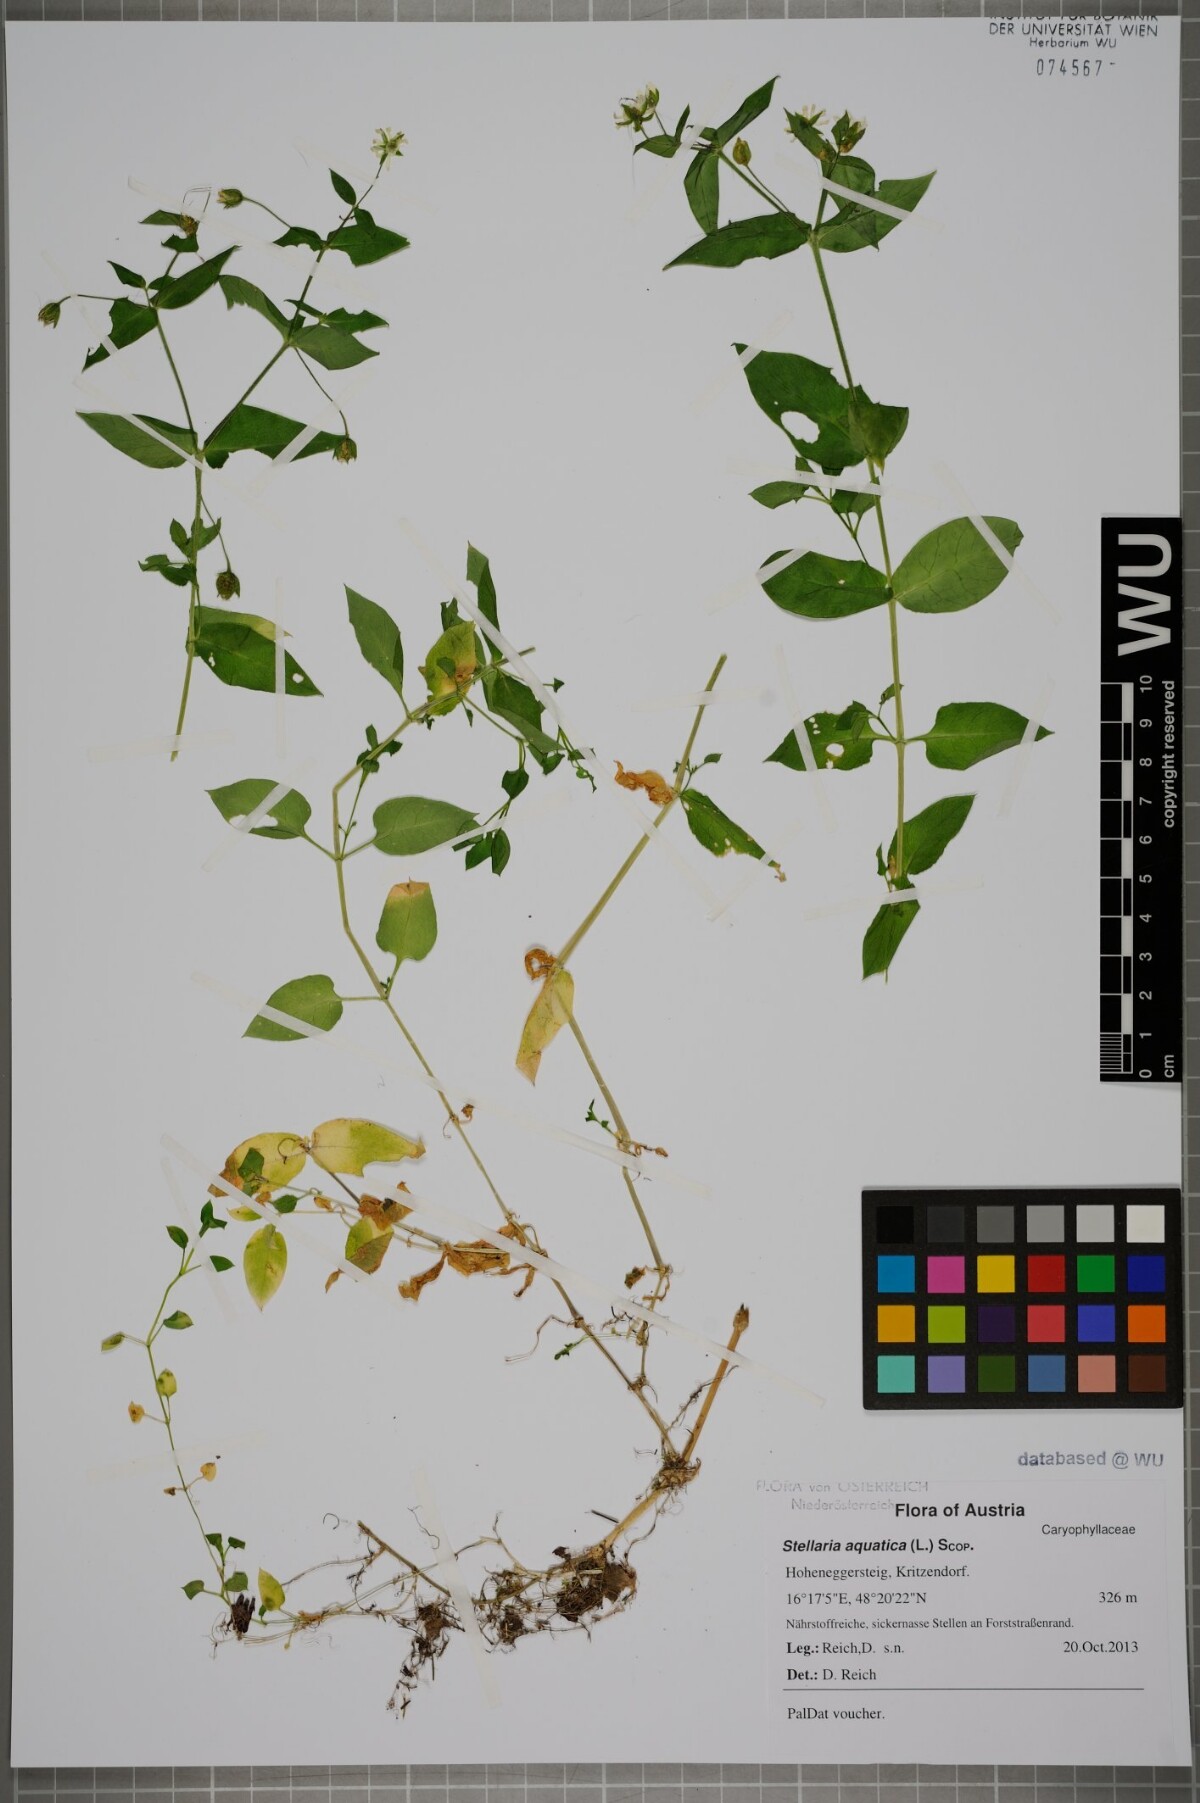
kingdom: Plantae
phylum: Tracheophyta
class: Magnoliopsida
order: Caryophyllales
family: Caryophyllaceae
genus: Stellaria
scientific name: Stellaria aquatica
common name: Water chickweed
